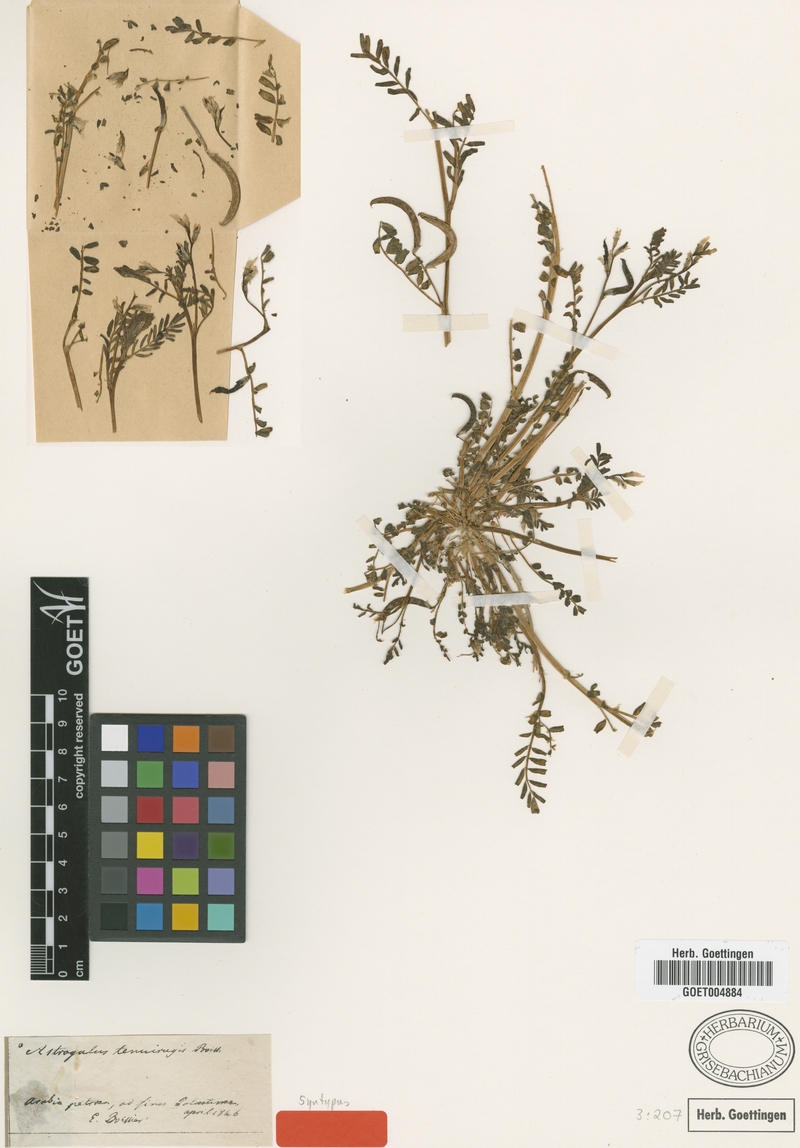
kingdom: Plantae
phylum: Tracheophyta
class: Magnoliopsida
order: Fabales
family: Fabaceae
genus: Astragalus
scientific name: Astragalus crenatus
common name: Milk vetch
